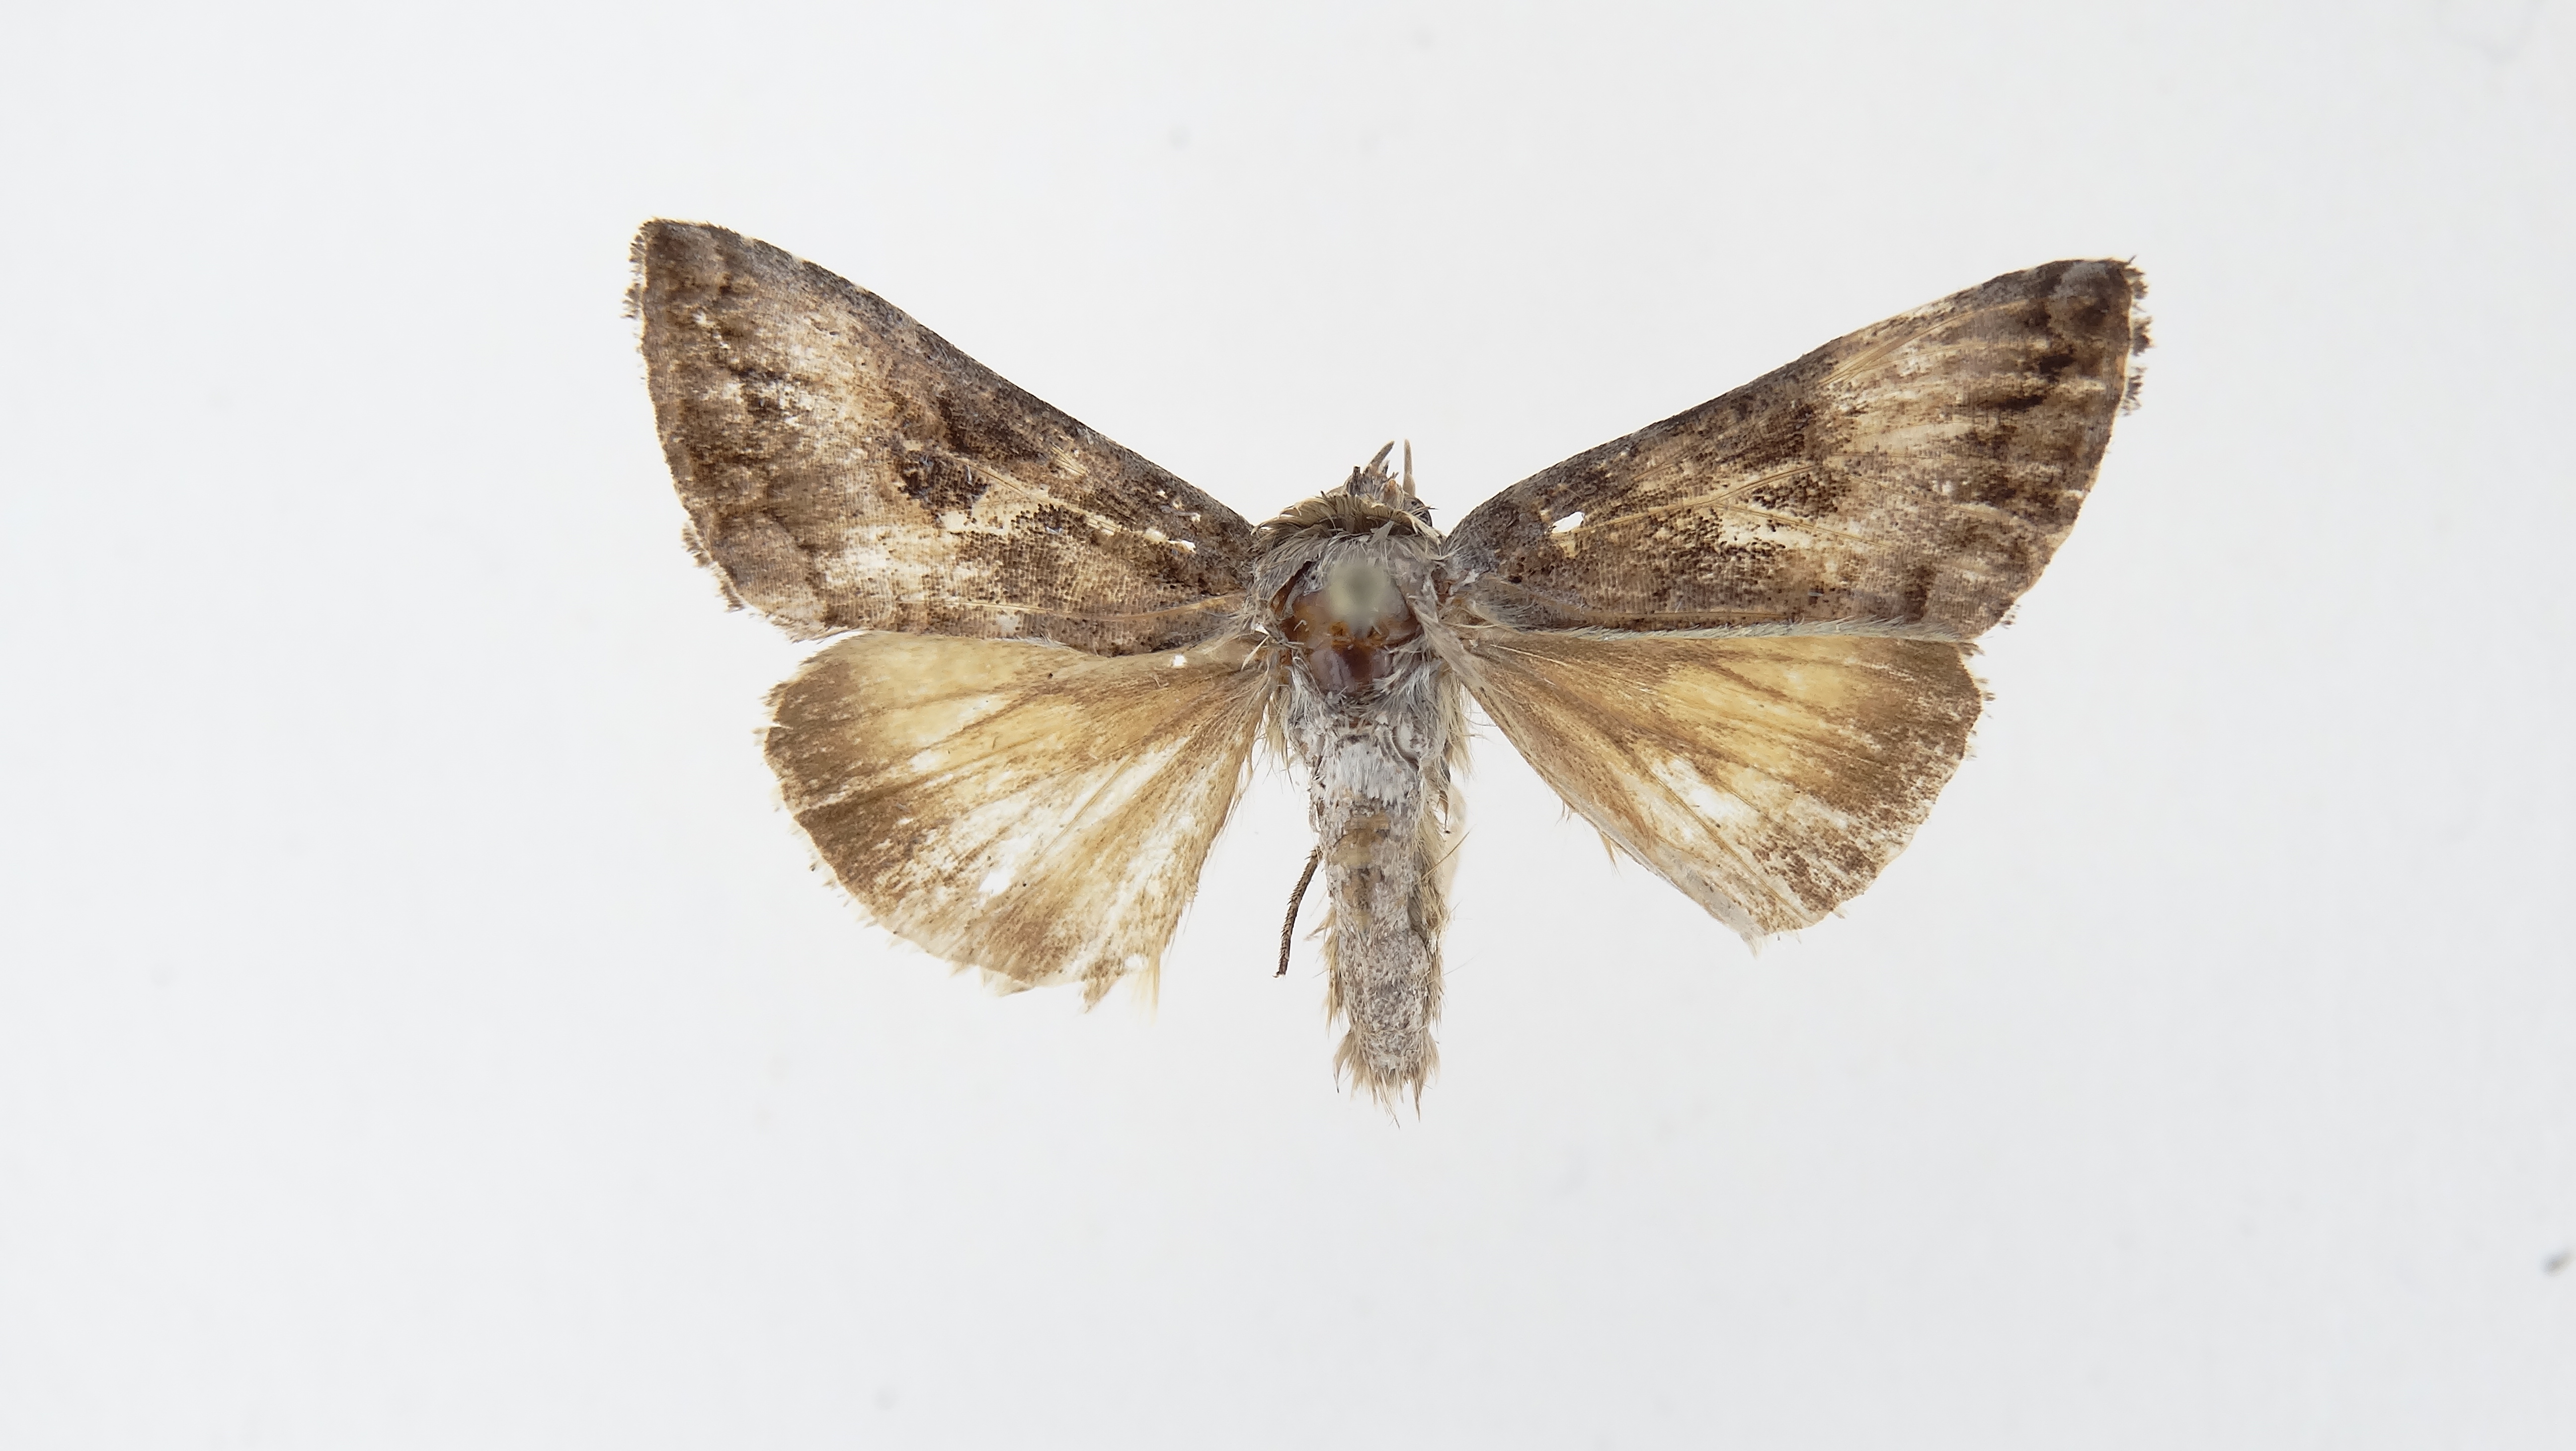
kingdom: Animalia
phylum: Arthropoda
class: Insecta
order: Lepidoptera
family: Noctuidae
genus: Rachiplusia
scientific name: Rachiplusia nu
